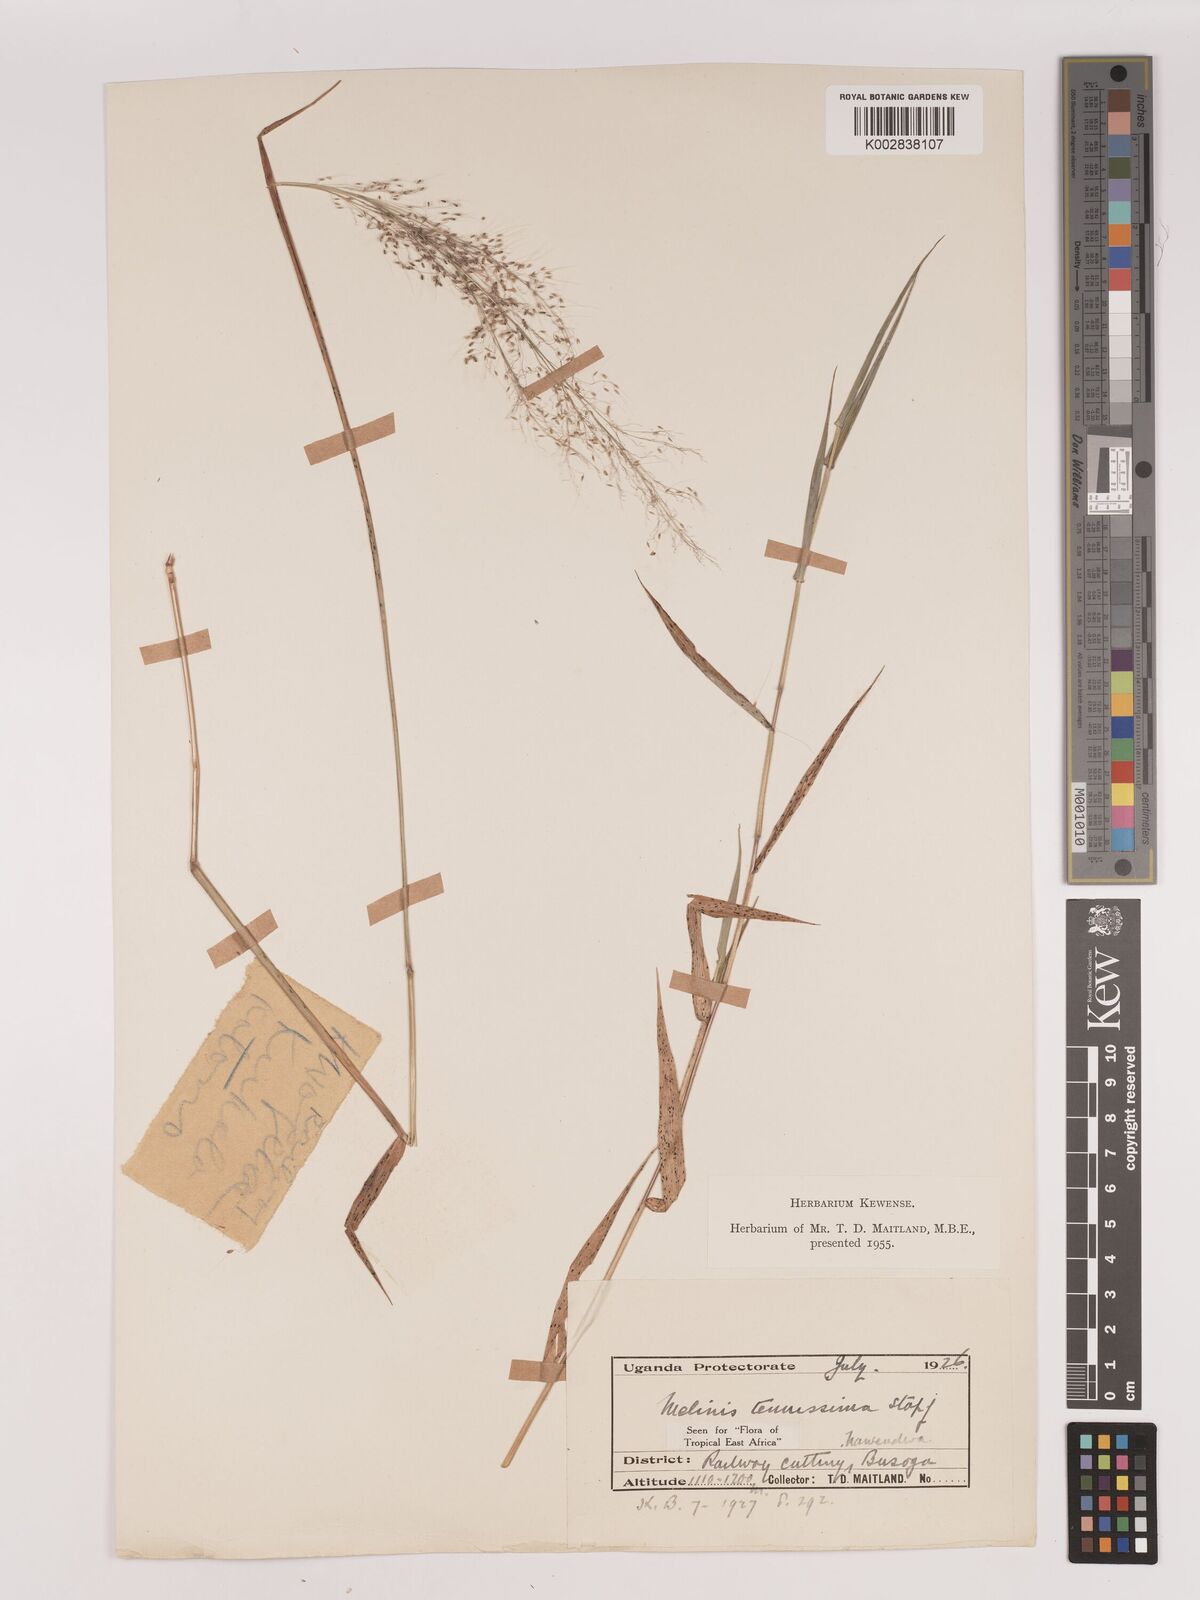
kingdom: Plantae
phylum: Tracheophyta
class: Liliopsida
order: Poales
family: Poaceae
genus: Melinis
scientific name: Melinis tenuissima
